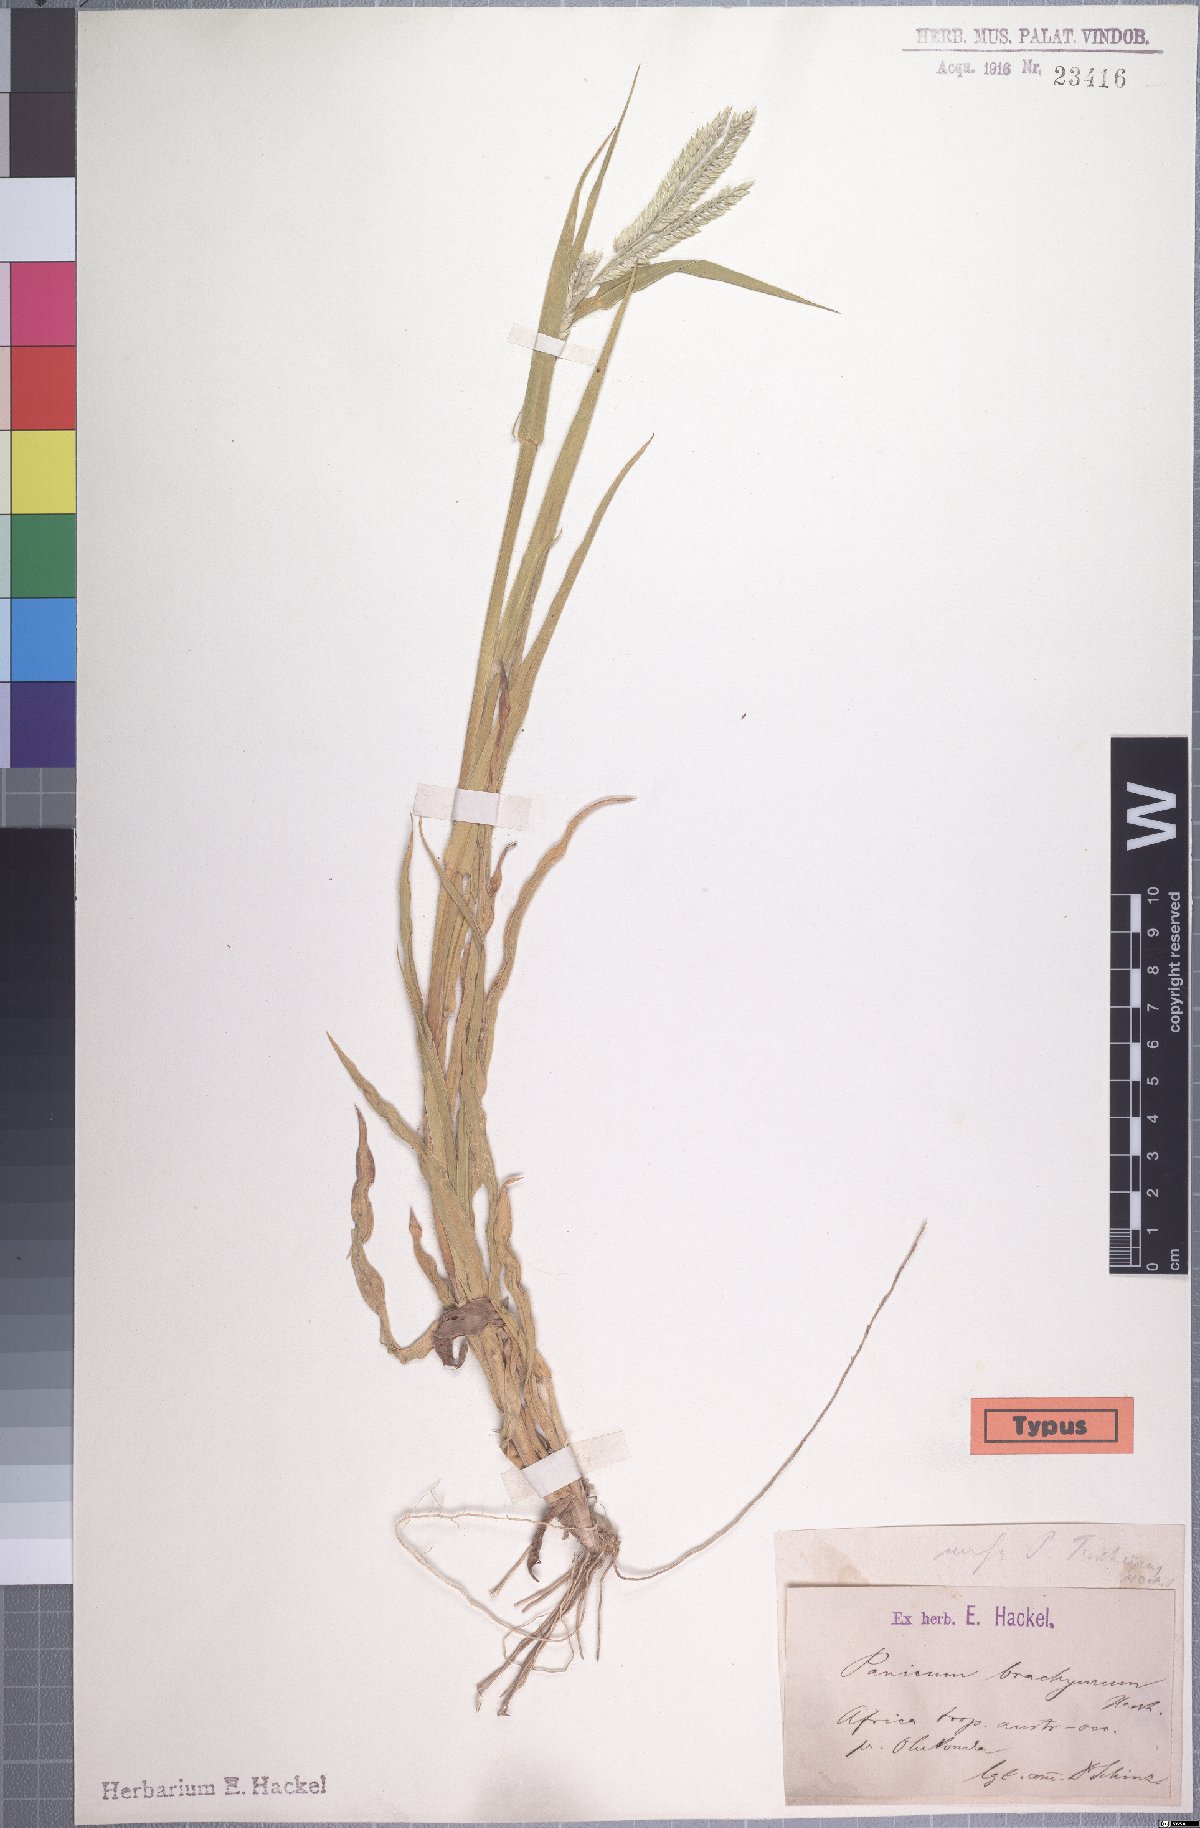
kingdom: Plantae
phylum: Tracheophyta
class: Liliopsida
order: Poales
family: Poaceae
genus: Urochloa
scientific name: Urochloa brachyura
